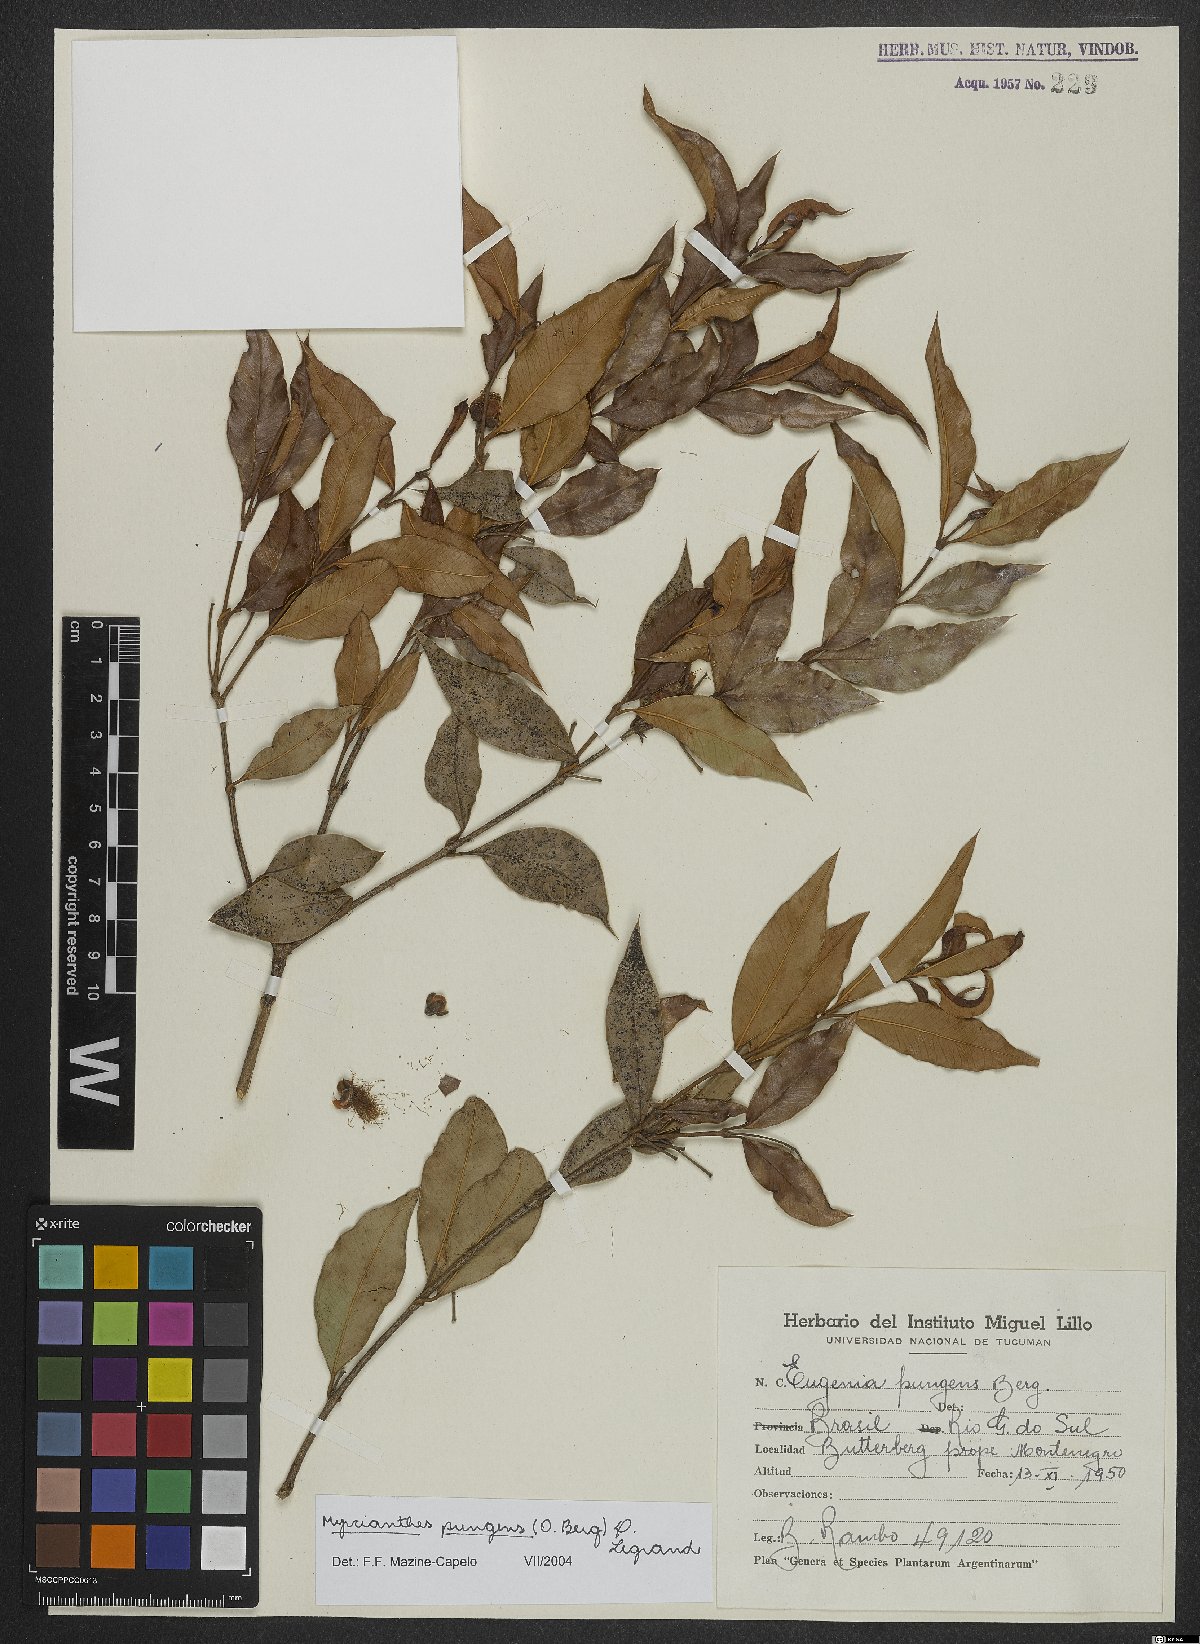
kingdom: Plantae
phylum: Tracheophyta
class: Magnoliopsida
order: Myrtales
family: Myrtaceae
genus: Myrcianthes
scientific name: Myrcianthes pungens
